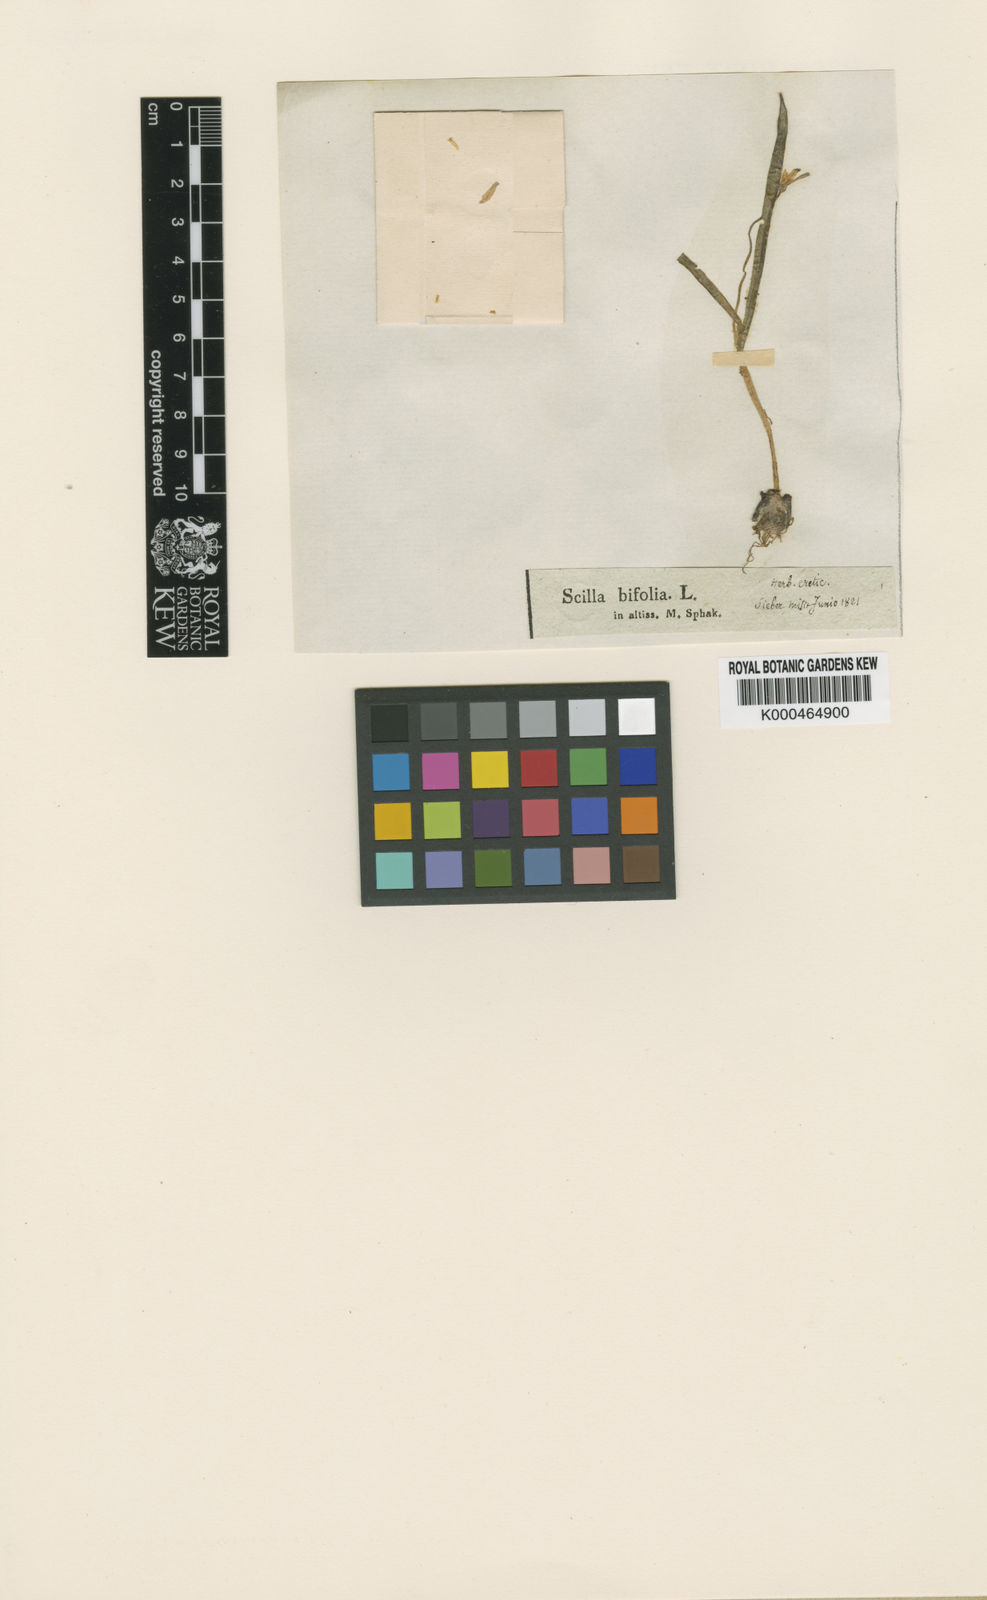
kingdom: Plantae
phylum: Tracheophyta
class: Liliopsida
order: Asparagales
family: Asparagaceae
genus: Scilla
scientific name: Scilla cretica
